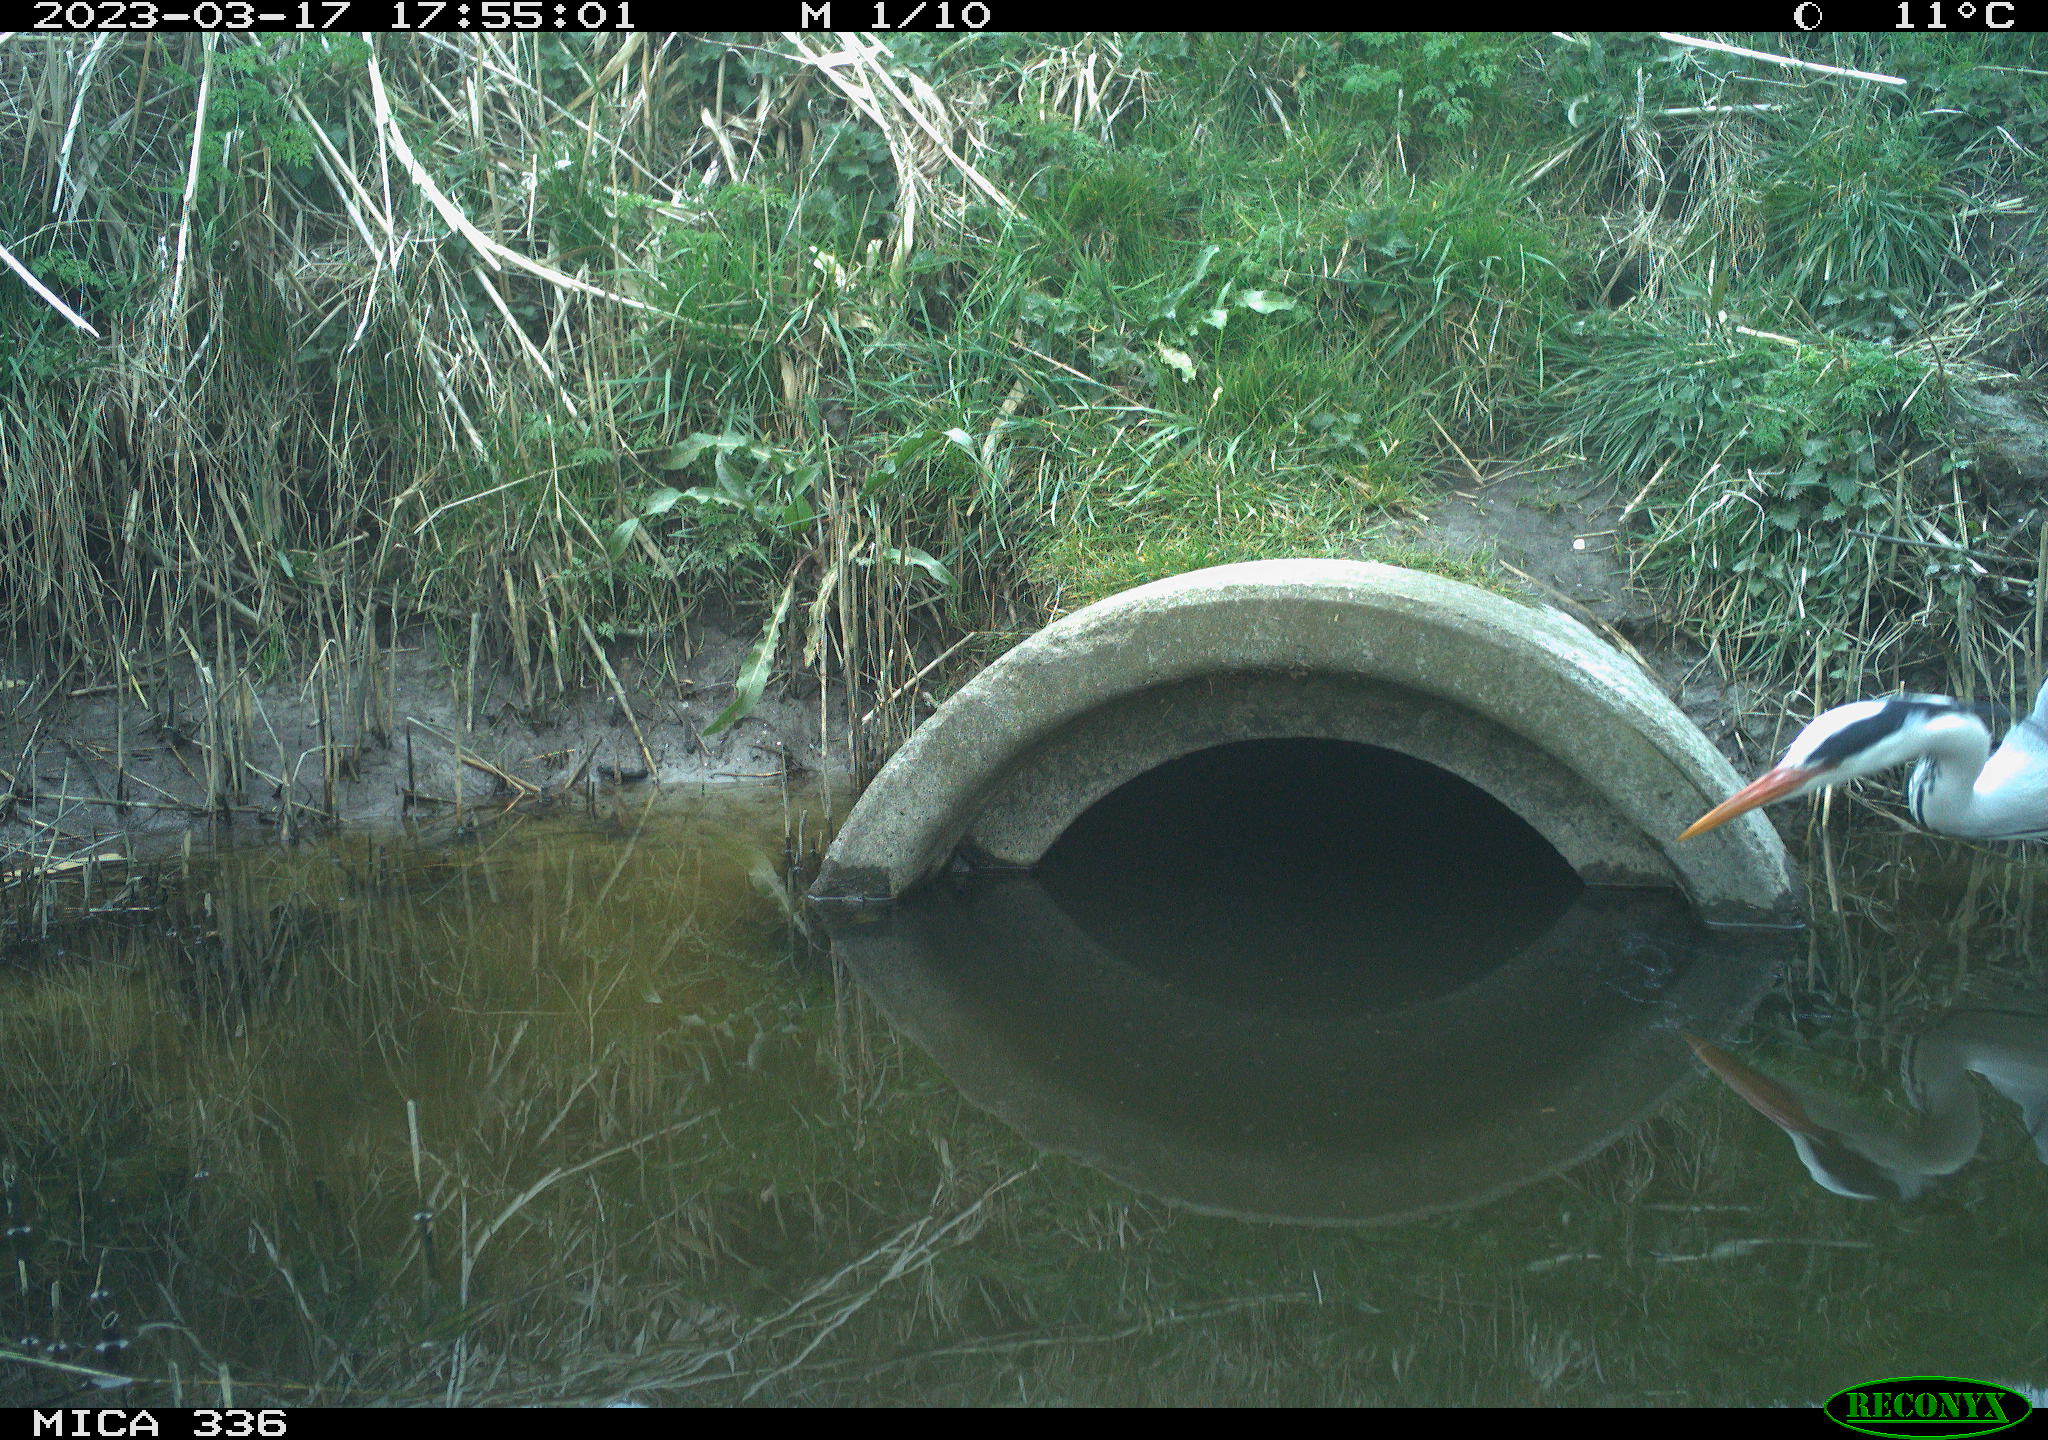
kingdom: Animalia
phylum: Chordata
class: Aves
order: Pelecaniformes
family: Ardeidae
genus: Ardea
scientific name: Ardea cinerea
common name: Grey heron
